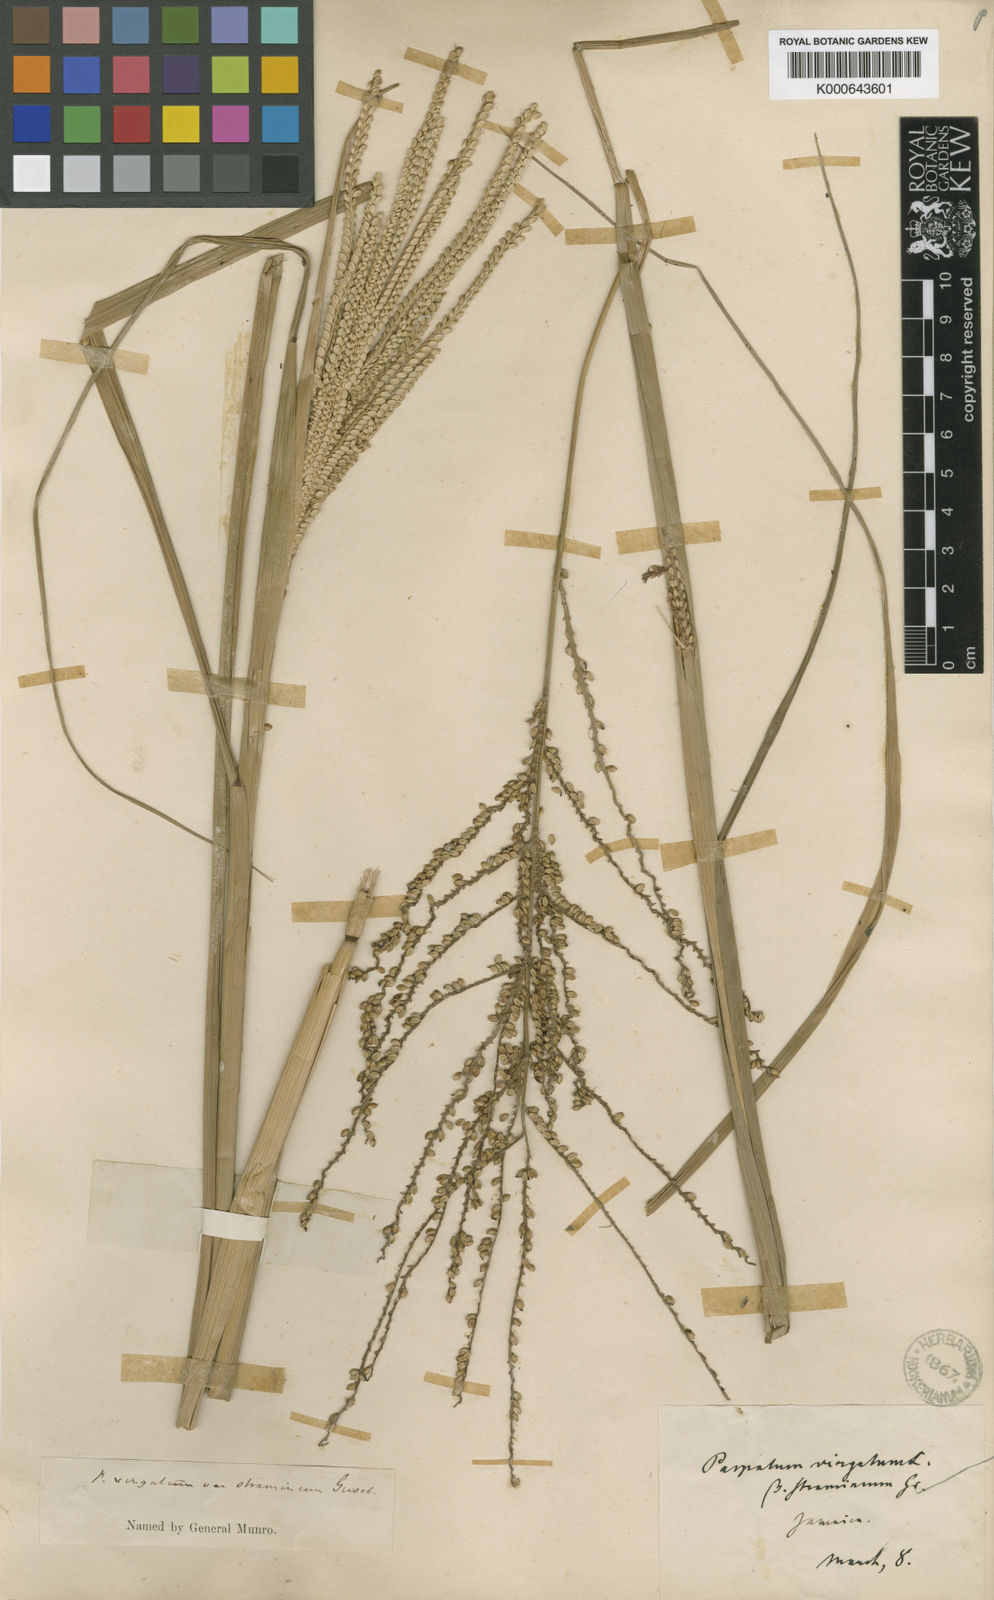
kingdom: Plantae
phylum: Tracheophyta
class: Liliopsida
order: Poales
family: Poaceae
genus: Paspalum
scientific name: Paspalum virgatum
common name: Talquezal
